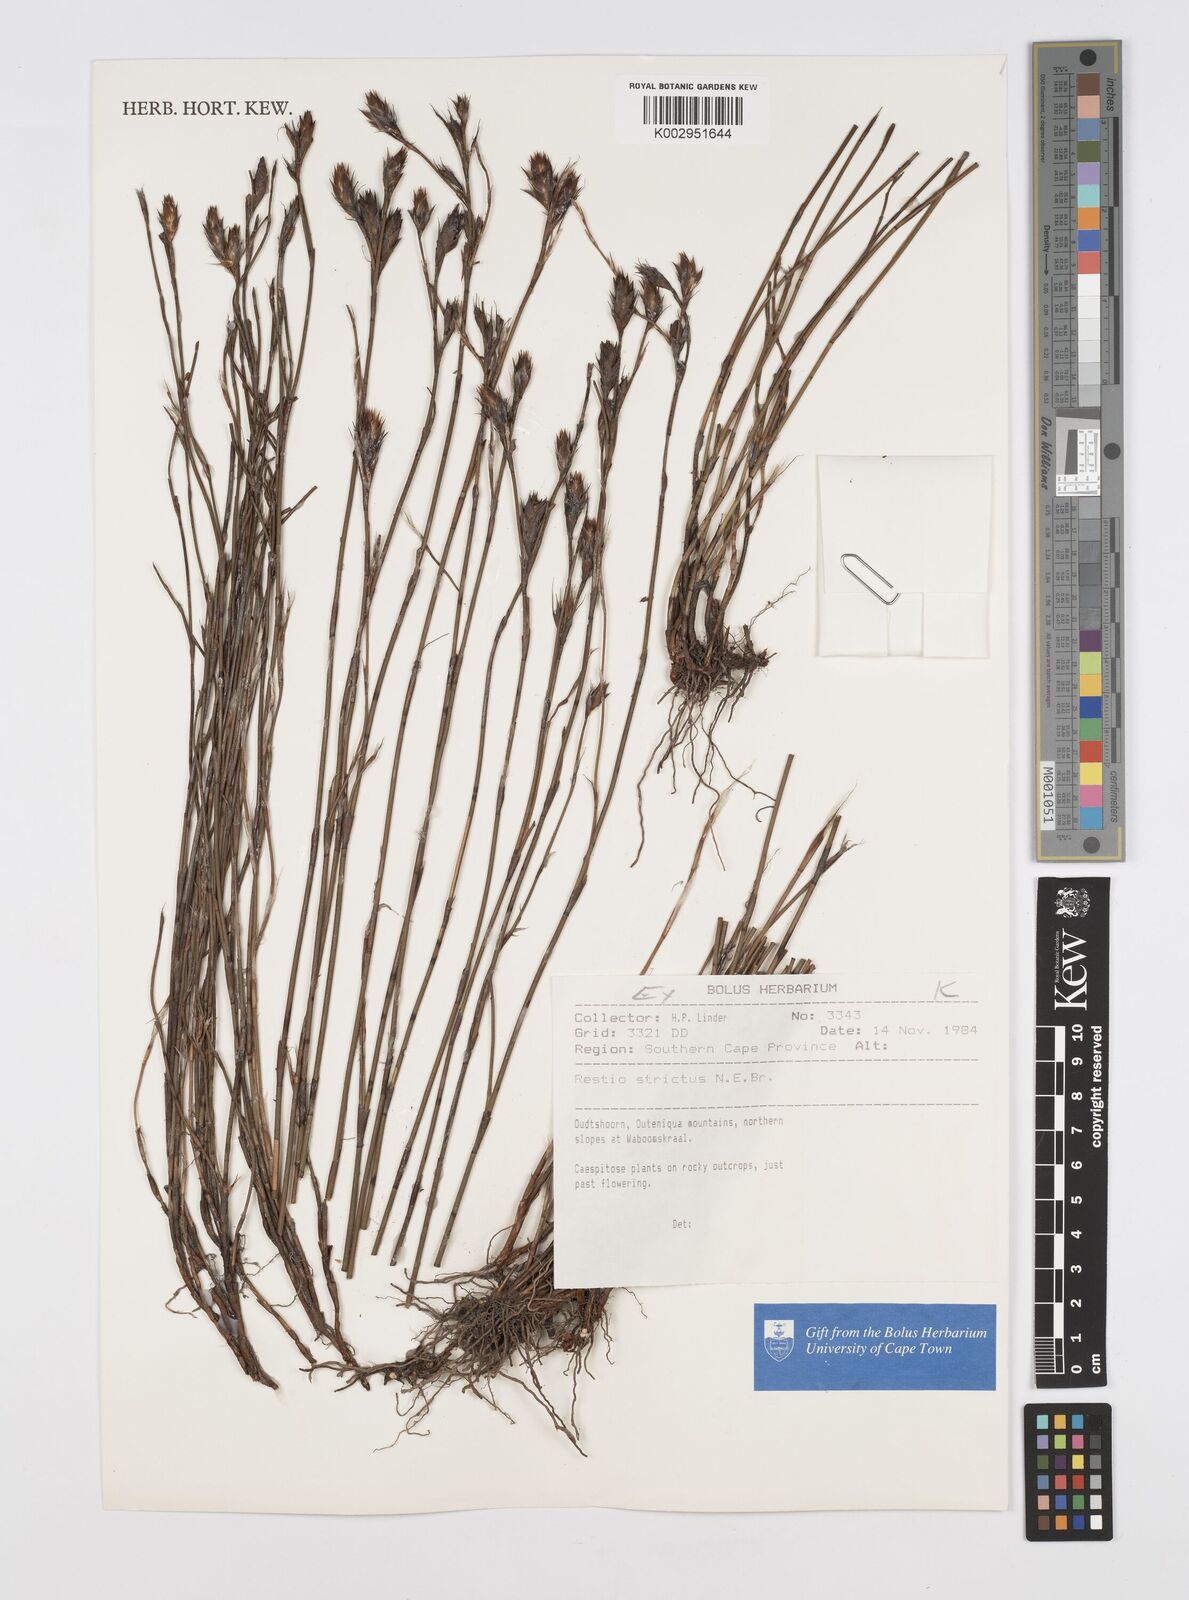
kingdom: Plantae
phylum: Tracheophyta
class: Liliopsida
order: Poales
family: Restionaceae
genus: Restio
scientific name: Restio strictus
